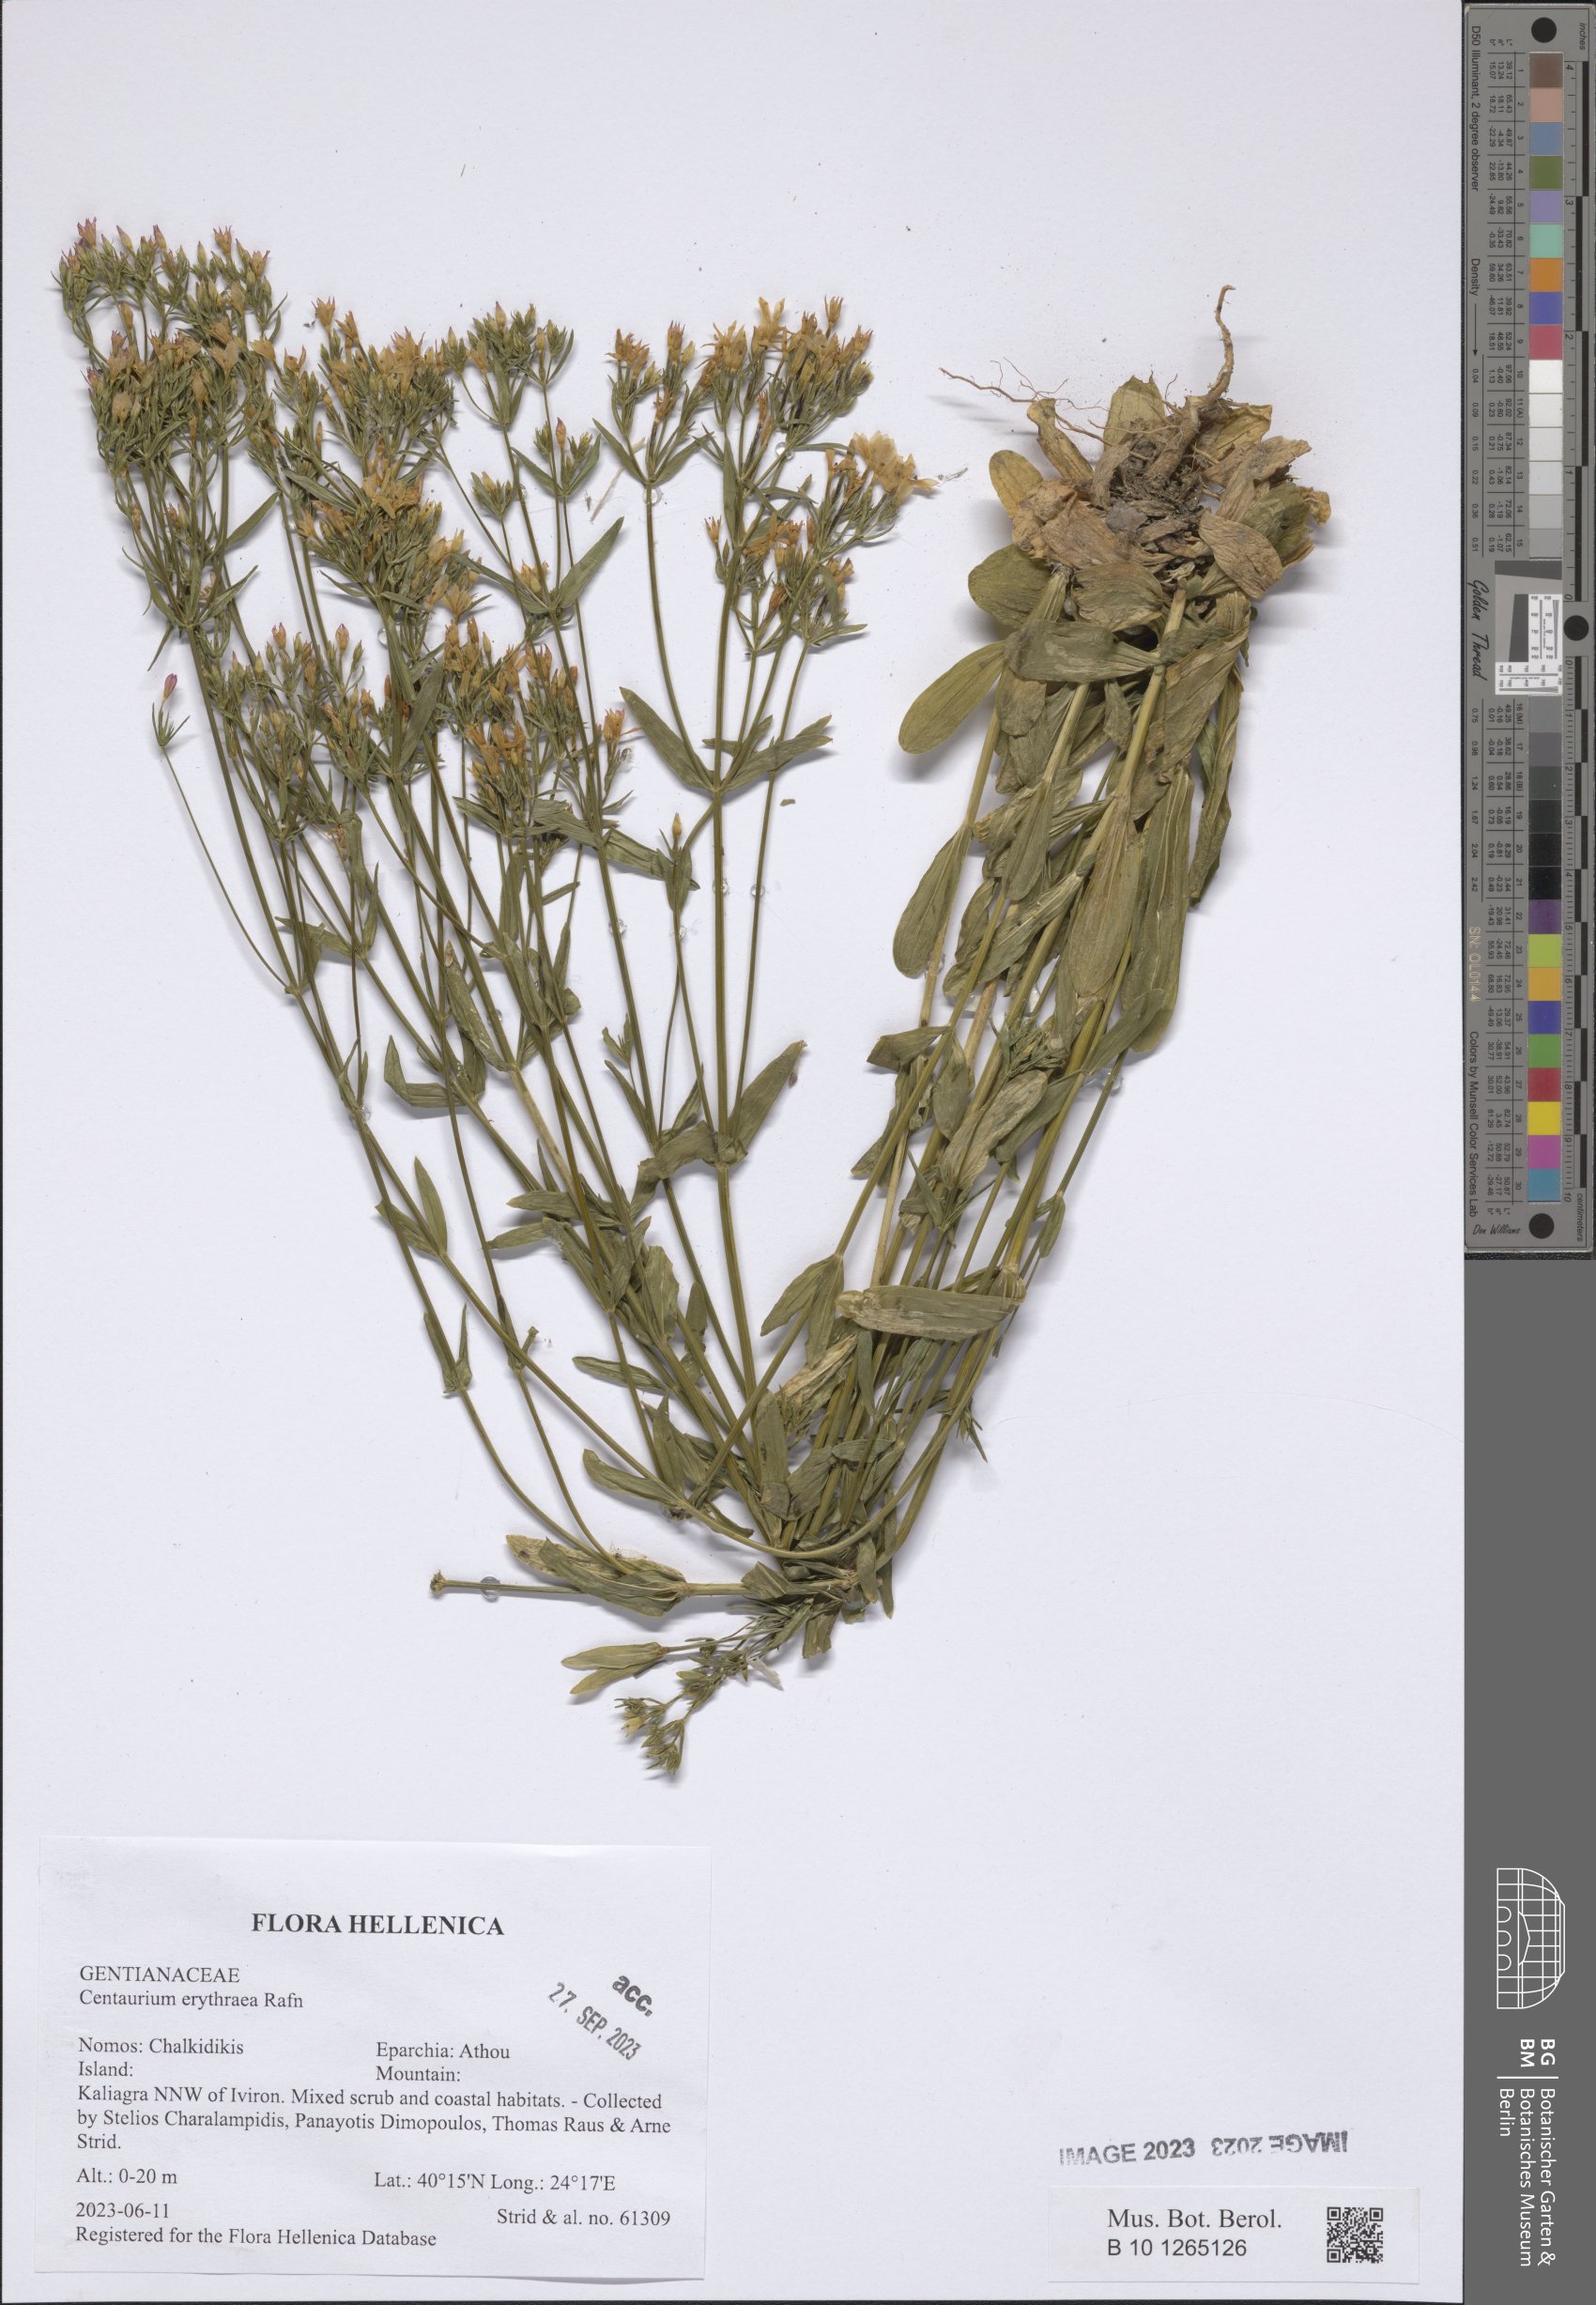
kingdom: Plantae
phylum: Tracheophyta
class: Magnoliopsida
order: Gentianales
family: Gentianaceae
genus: Centaurium
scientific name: Centaurium erythraea
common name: Common centaury
